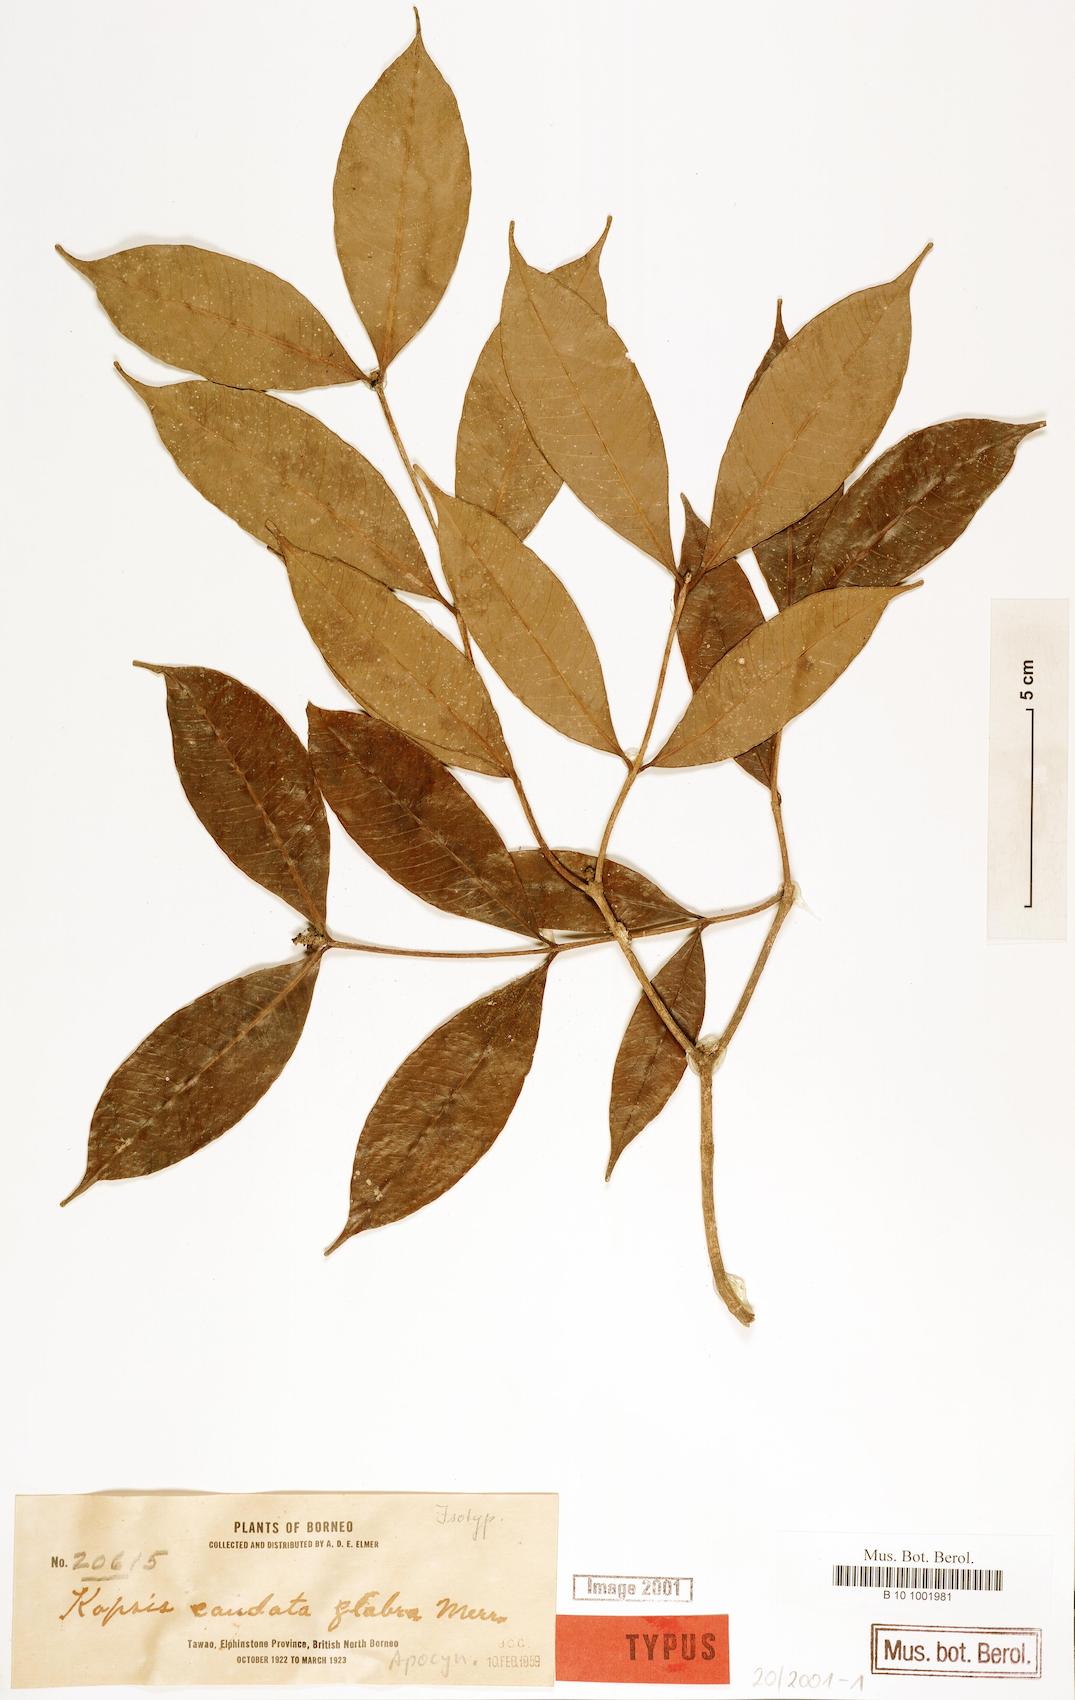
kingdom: Plantae
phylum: Tracheophyta
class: Magnoliopsida
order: Gentianales
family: Apocynaceae
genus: Kopsia
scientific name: Kopsia pauciflora
